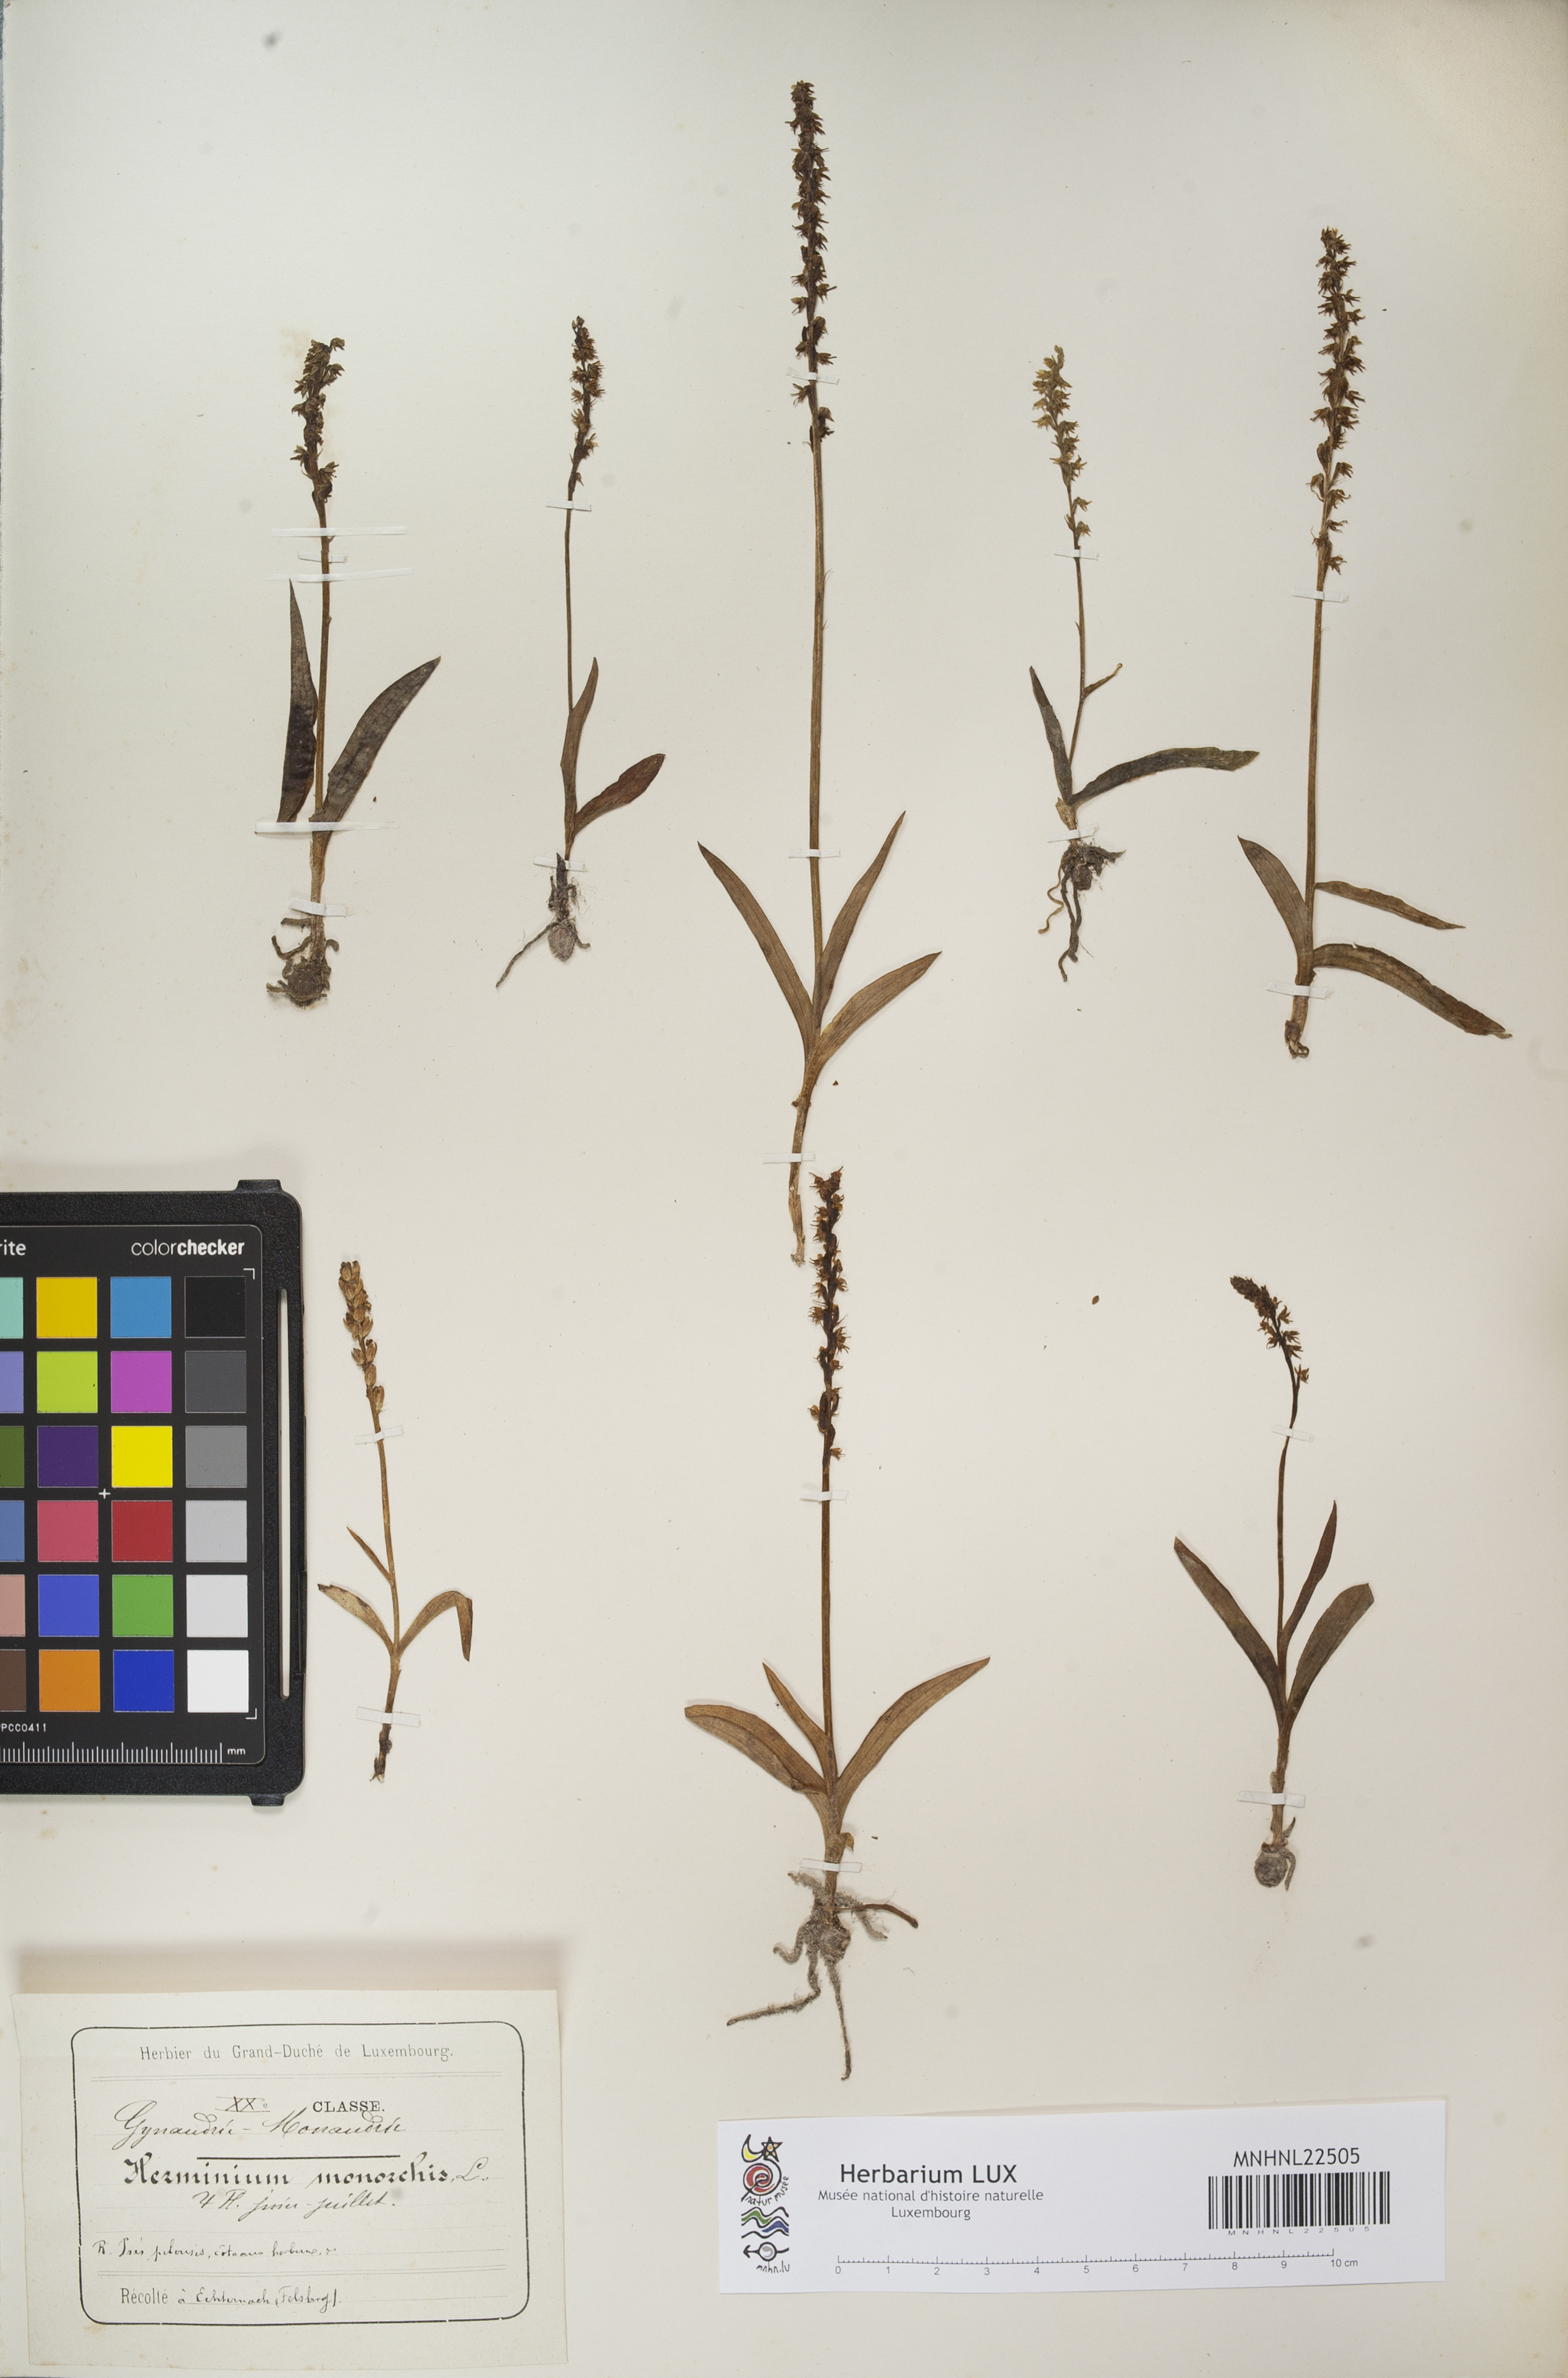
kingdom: Plantae
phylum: Tracheophyta
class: Liliopsida
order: Asparagales
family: Orchidaceae
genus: Herminium
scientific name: Herminium monorchis
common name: Musk orchid
